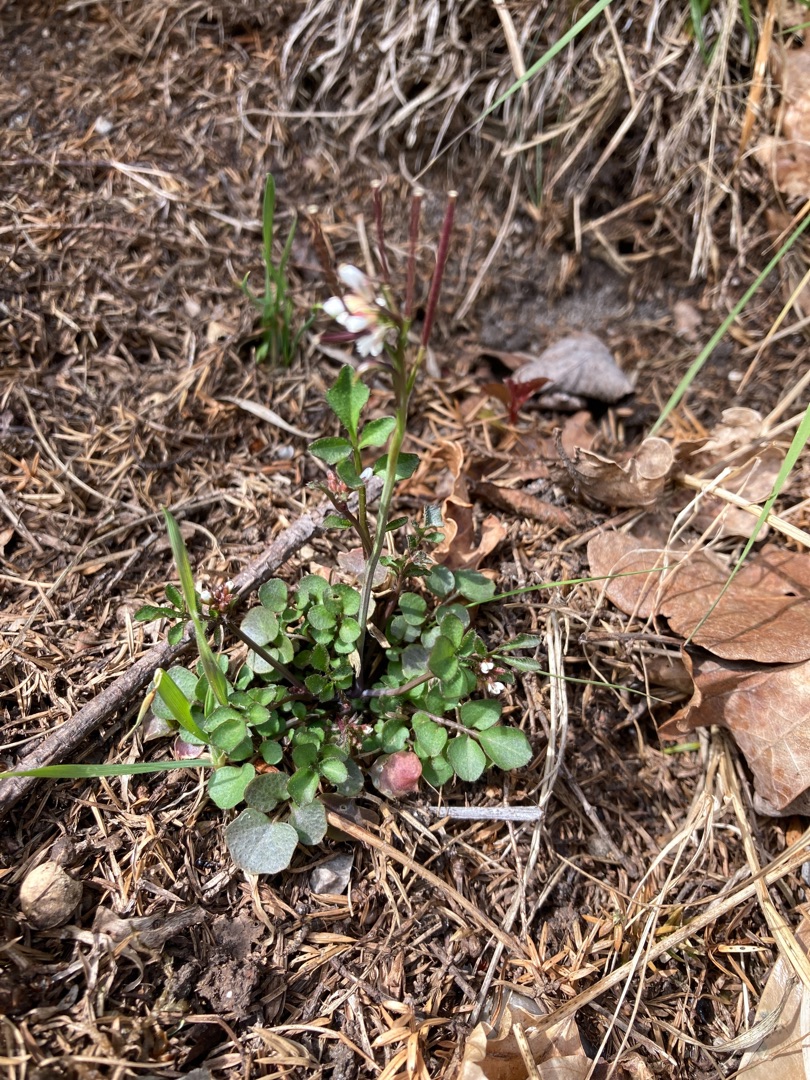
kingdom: Plantae
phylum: Tracheophyta
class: Magnoliopsida
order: Brassicales
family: Brassicaceae
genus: Cardamine
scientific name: Cardamine hirsuta
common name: Roset-springklap
